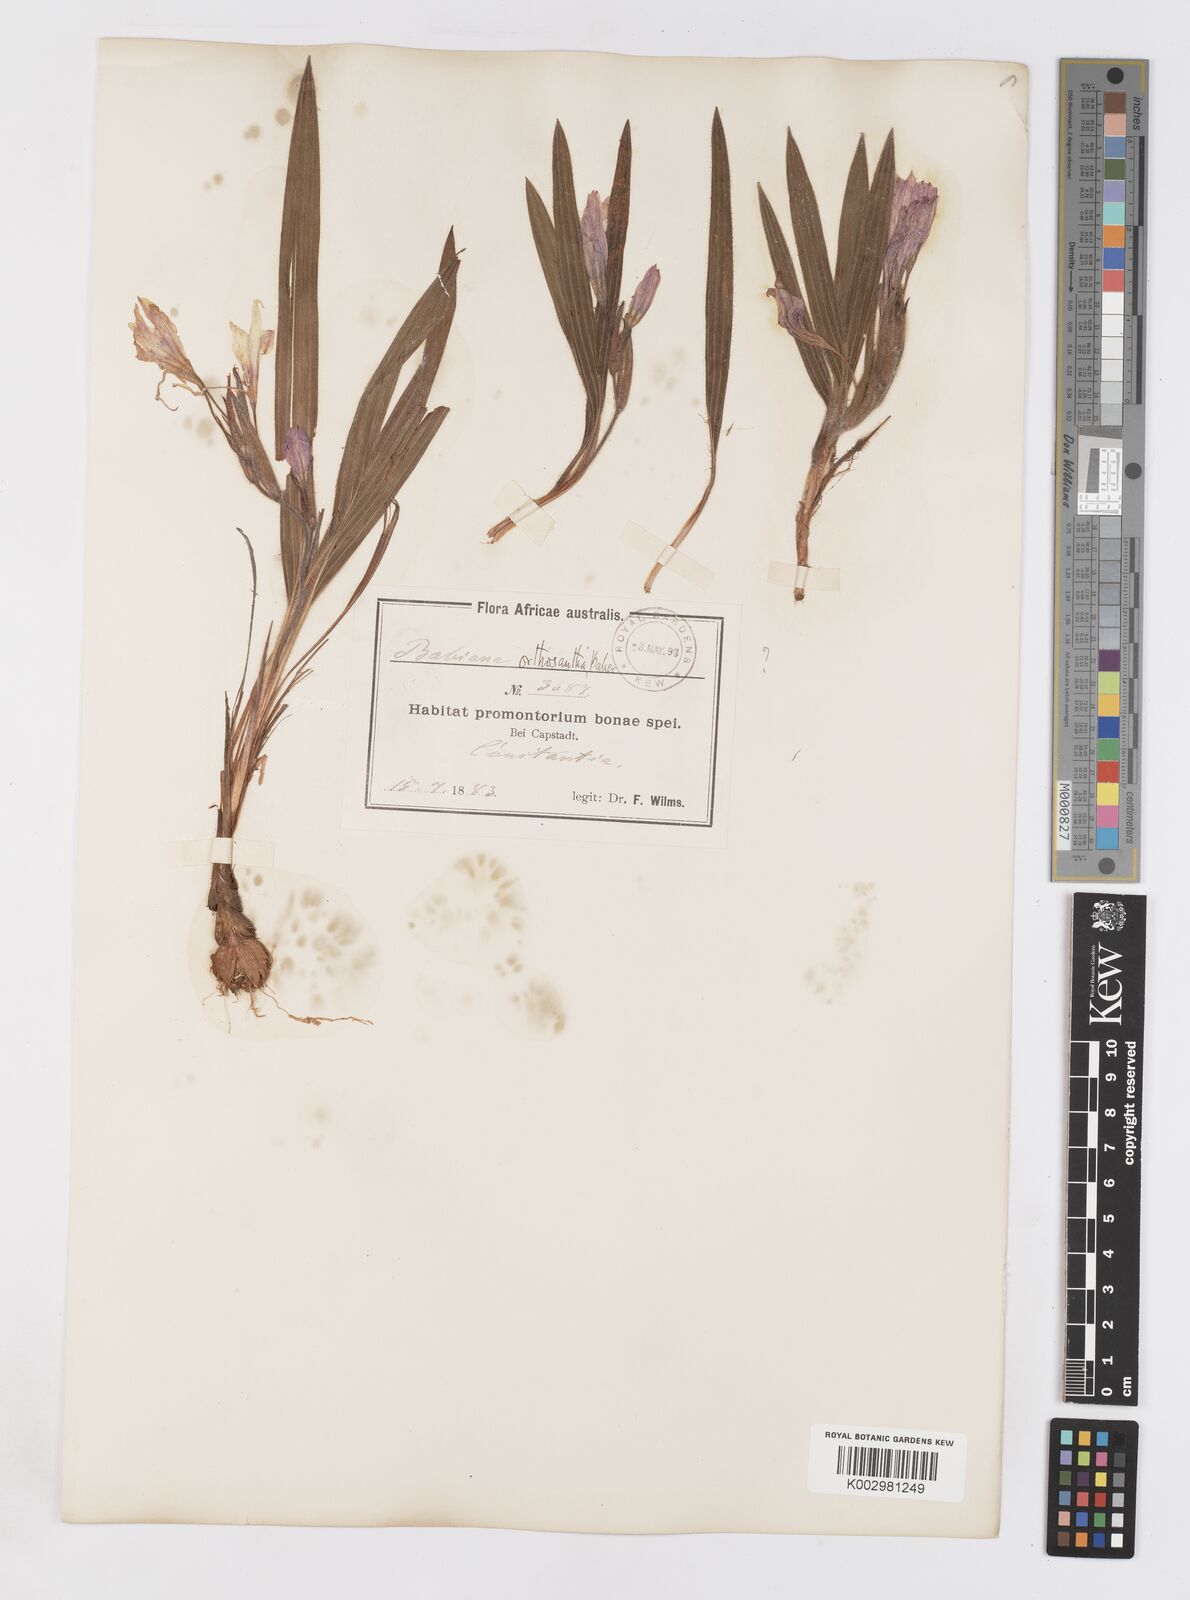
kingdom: Plantae
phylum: Tracheophyta
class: Liliopsida
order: Asparagales
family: Iridaceae
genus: Babiana
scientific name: Babiana villosula
